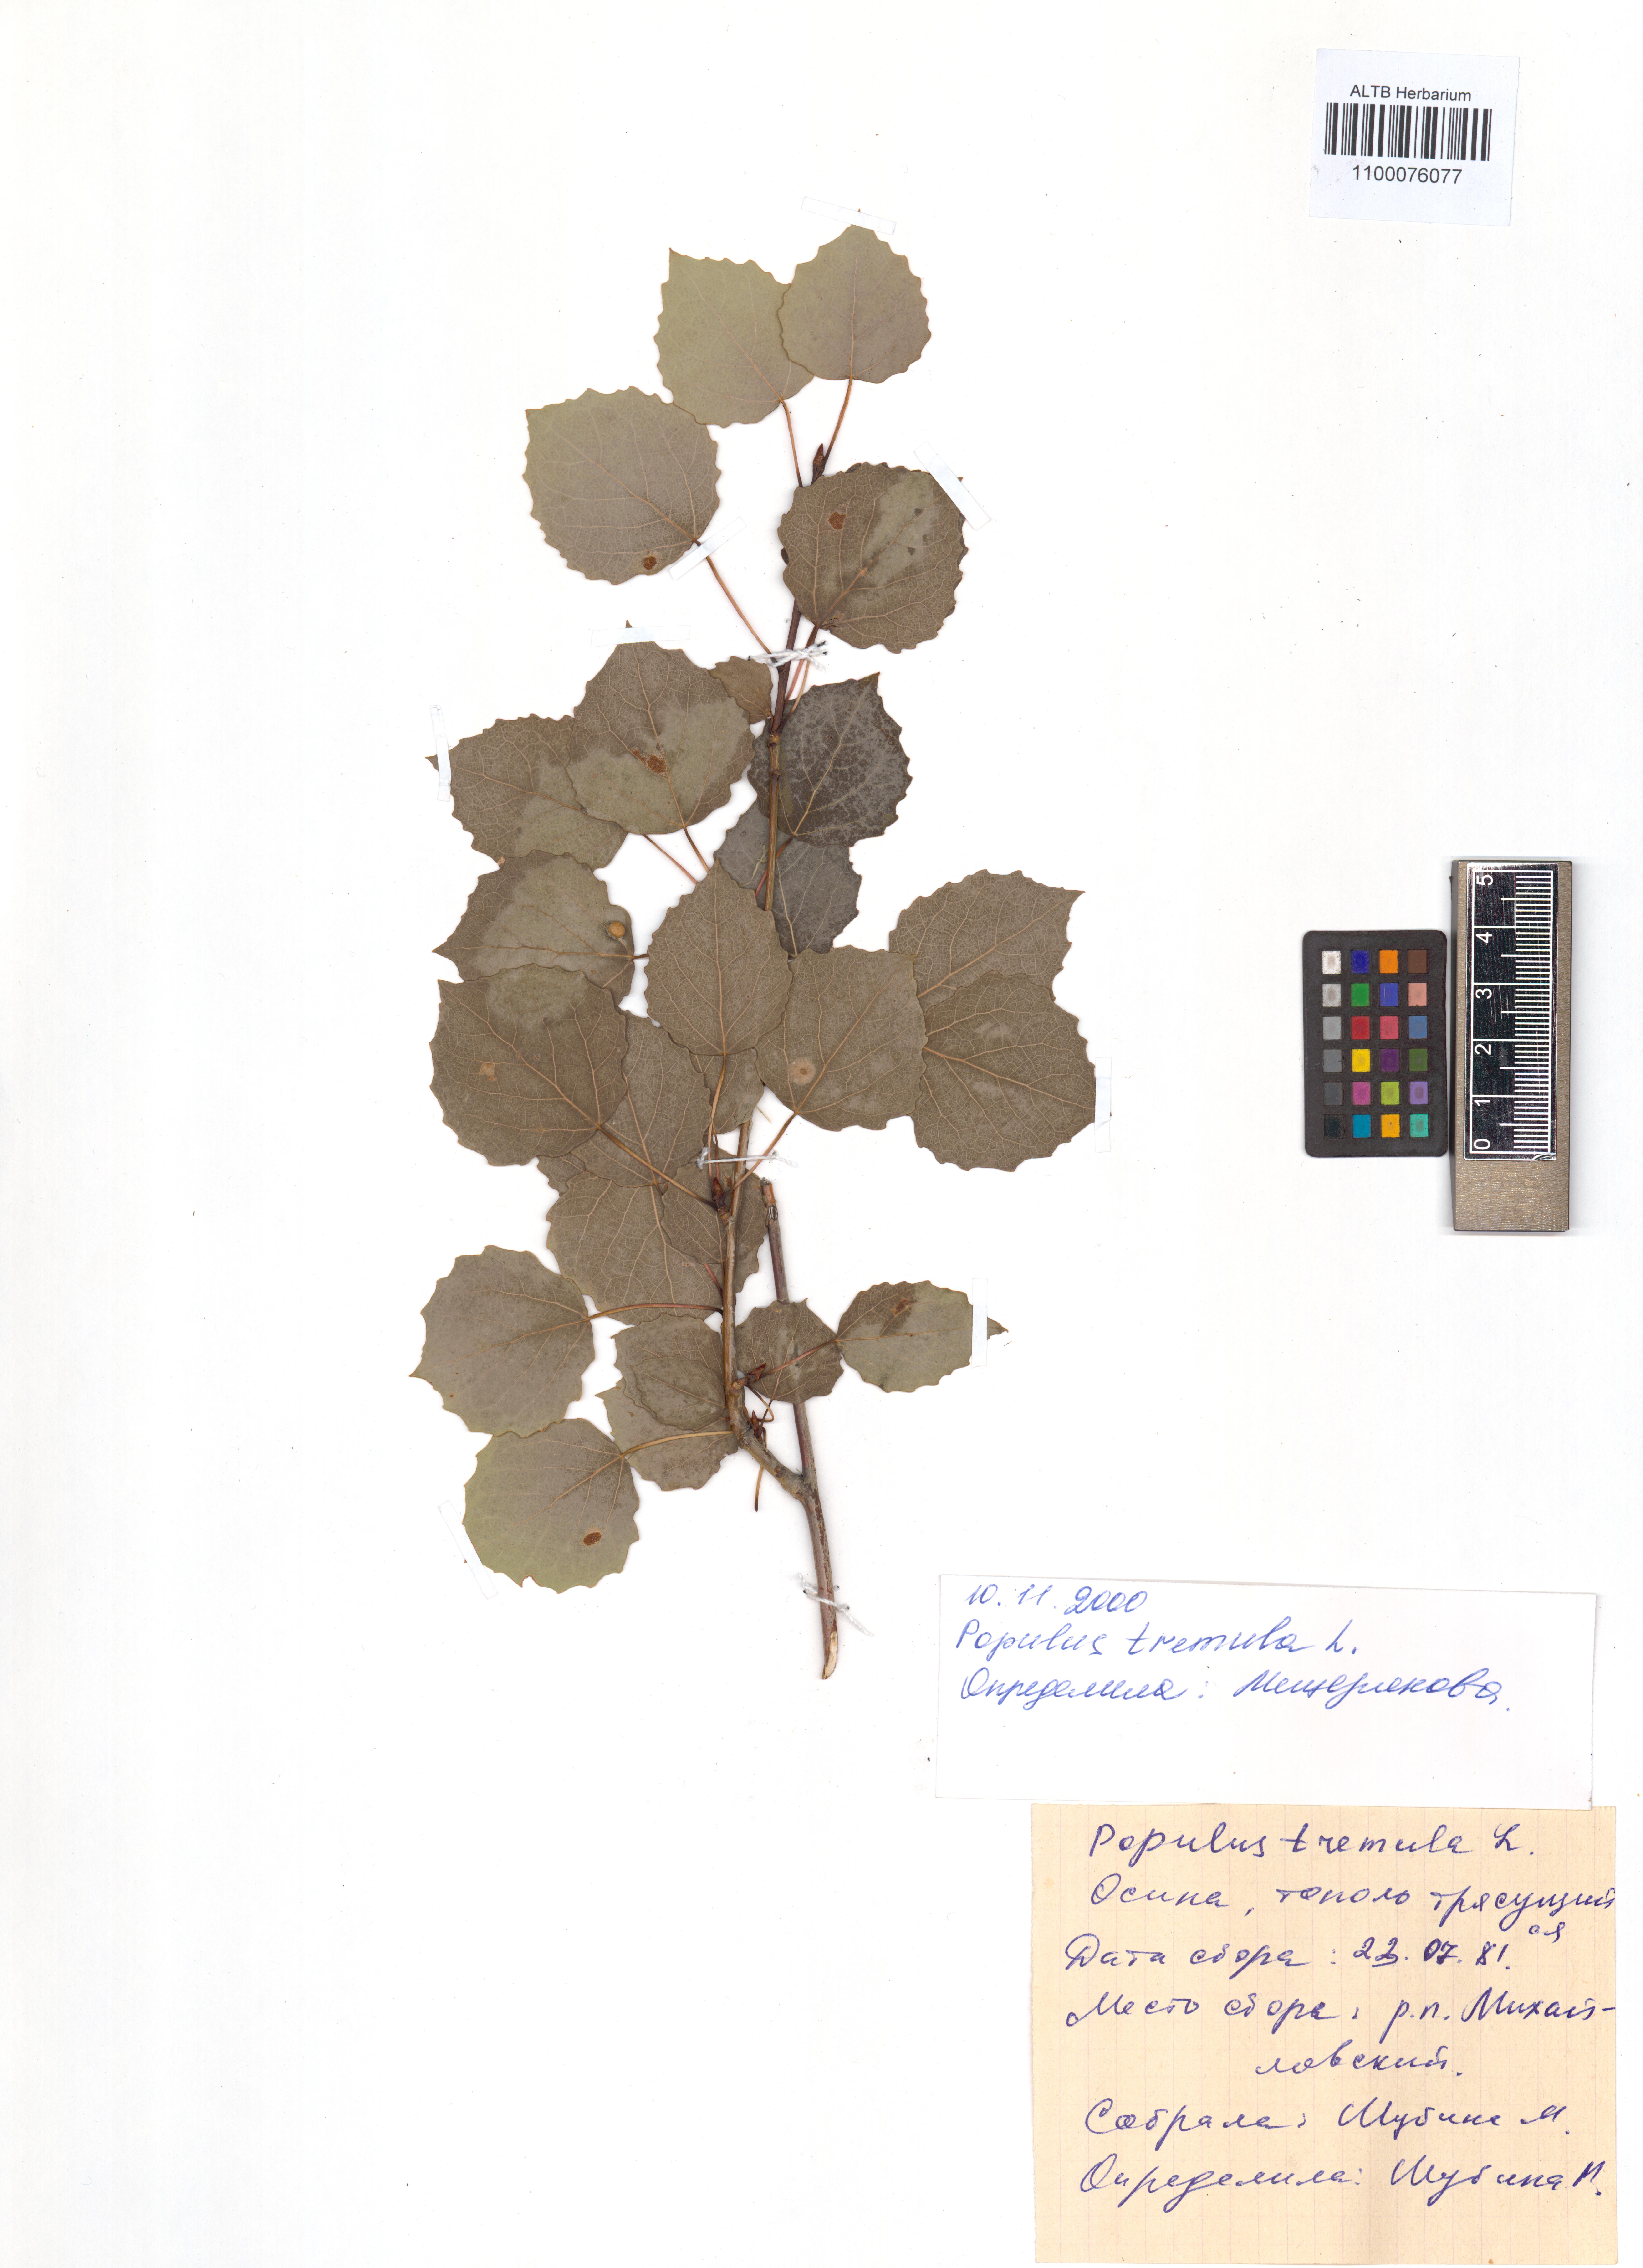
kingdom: Plantae
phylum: Tracheophyta
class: Magnoliopsida
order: Malpighiales
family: Salicaceae
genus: Populus
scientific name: Populus tremula
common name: European aspen
